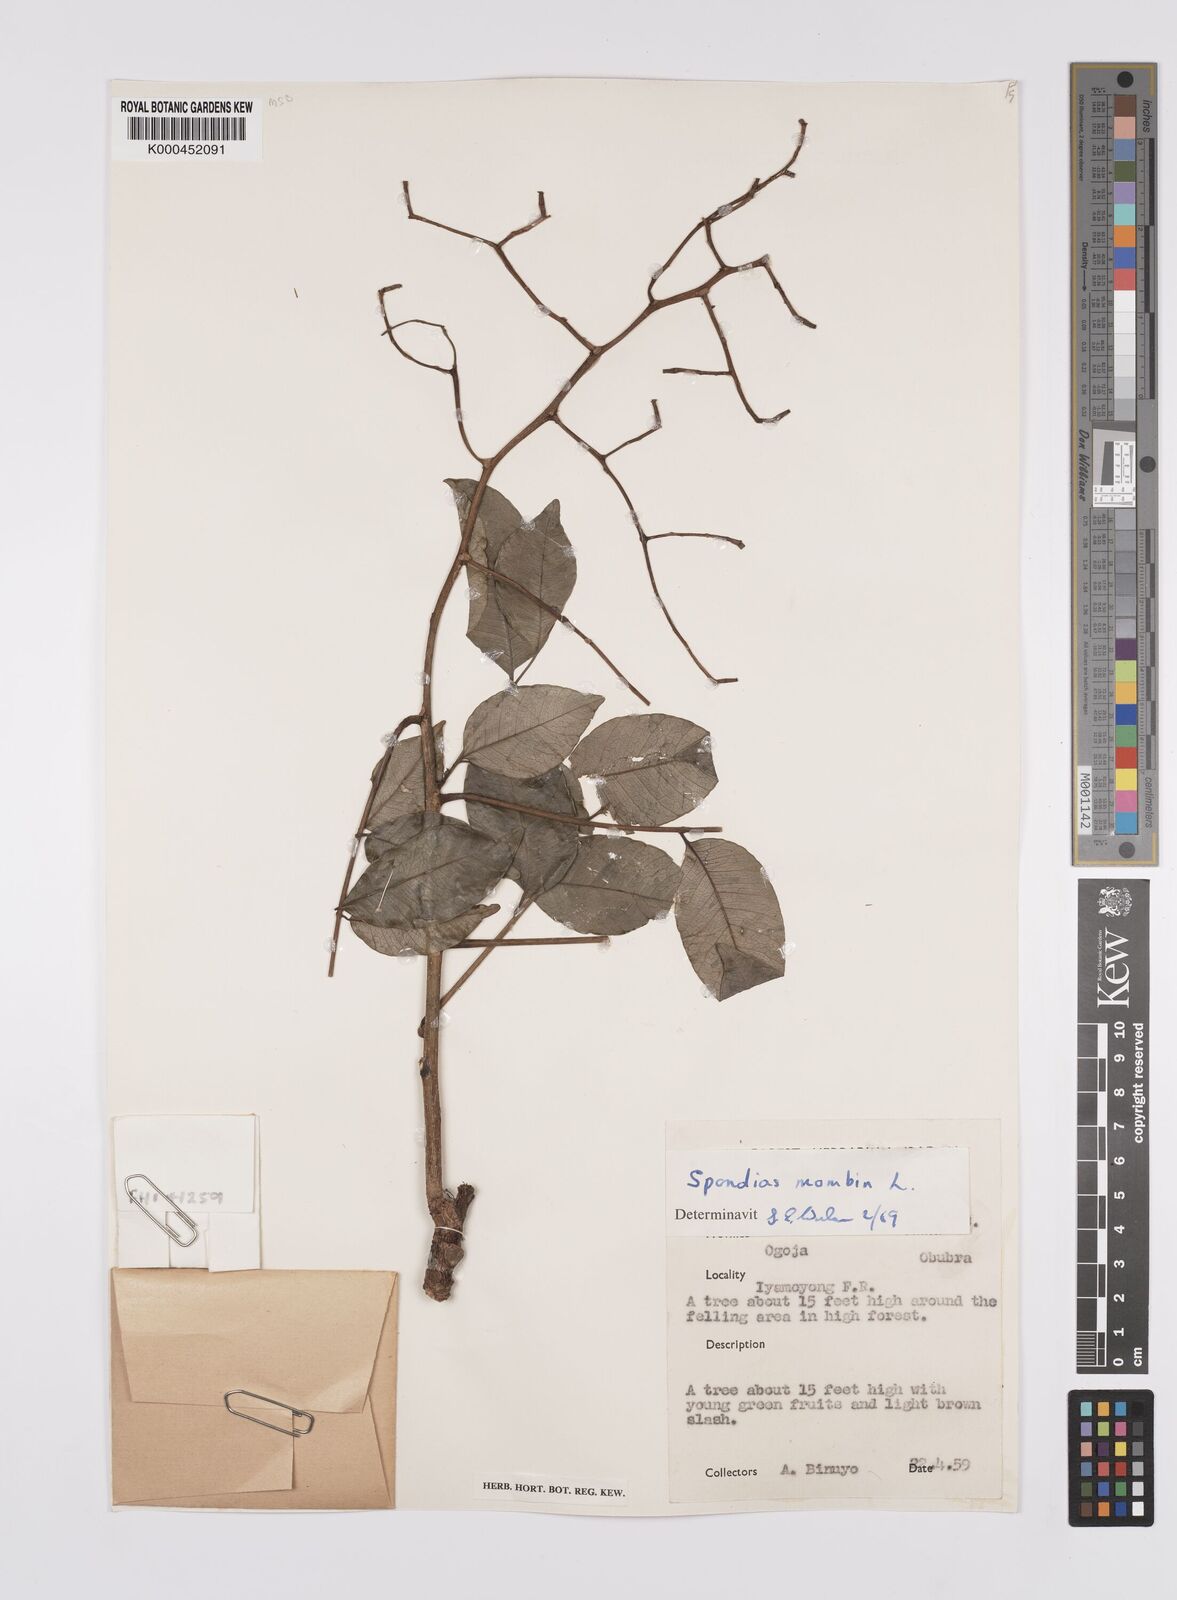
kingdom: Plantae
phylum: Tracheophyta
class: Magnoliopsida
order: Sapindales
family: Anacardiaceae
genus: Spondias
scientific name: Spondias mombin
